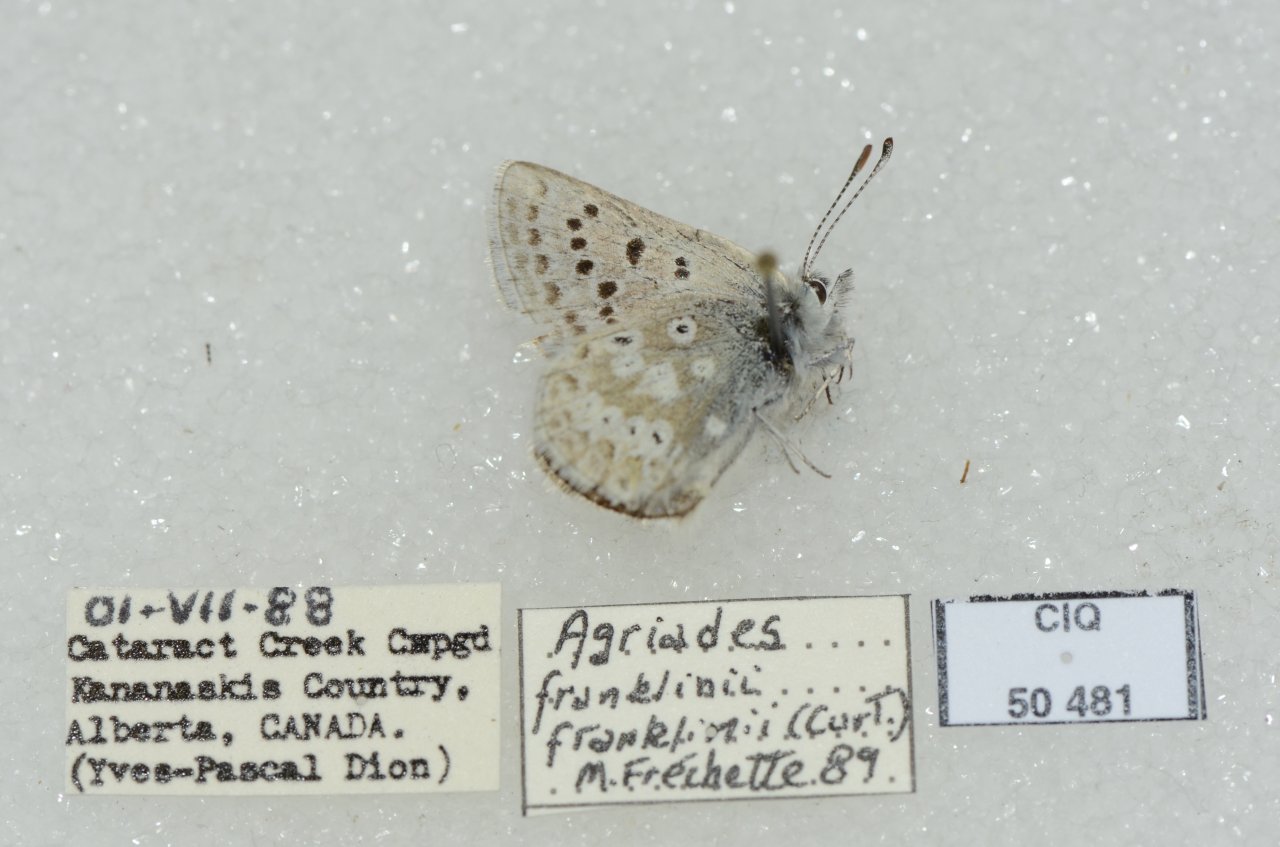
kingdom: Animalia
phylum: Arthropoda
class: Insecta
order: Lepidoptera
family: Lycaenidae
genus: Plebejus
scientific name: Plebejus saepiolus
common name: Greenish Blue
